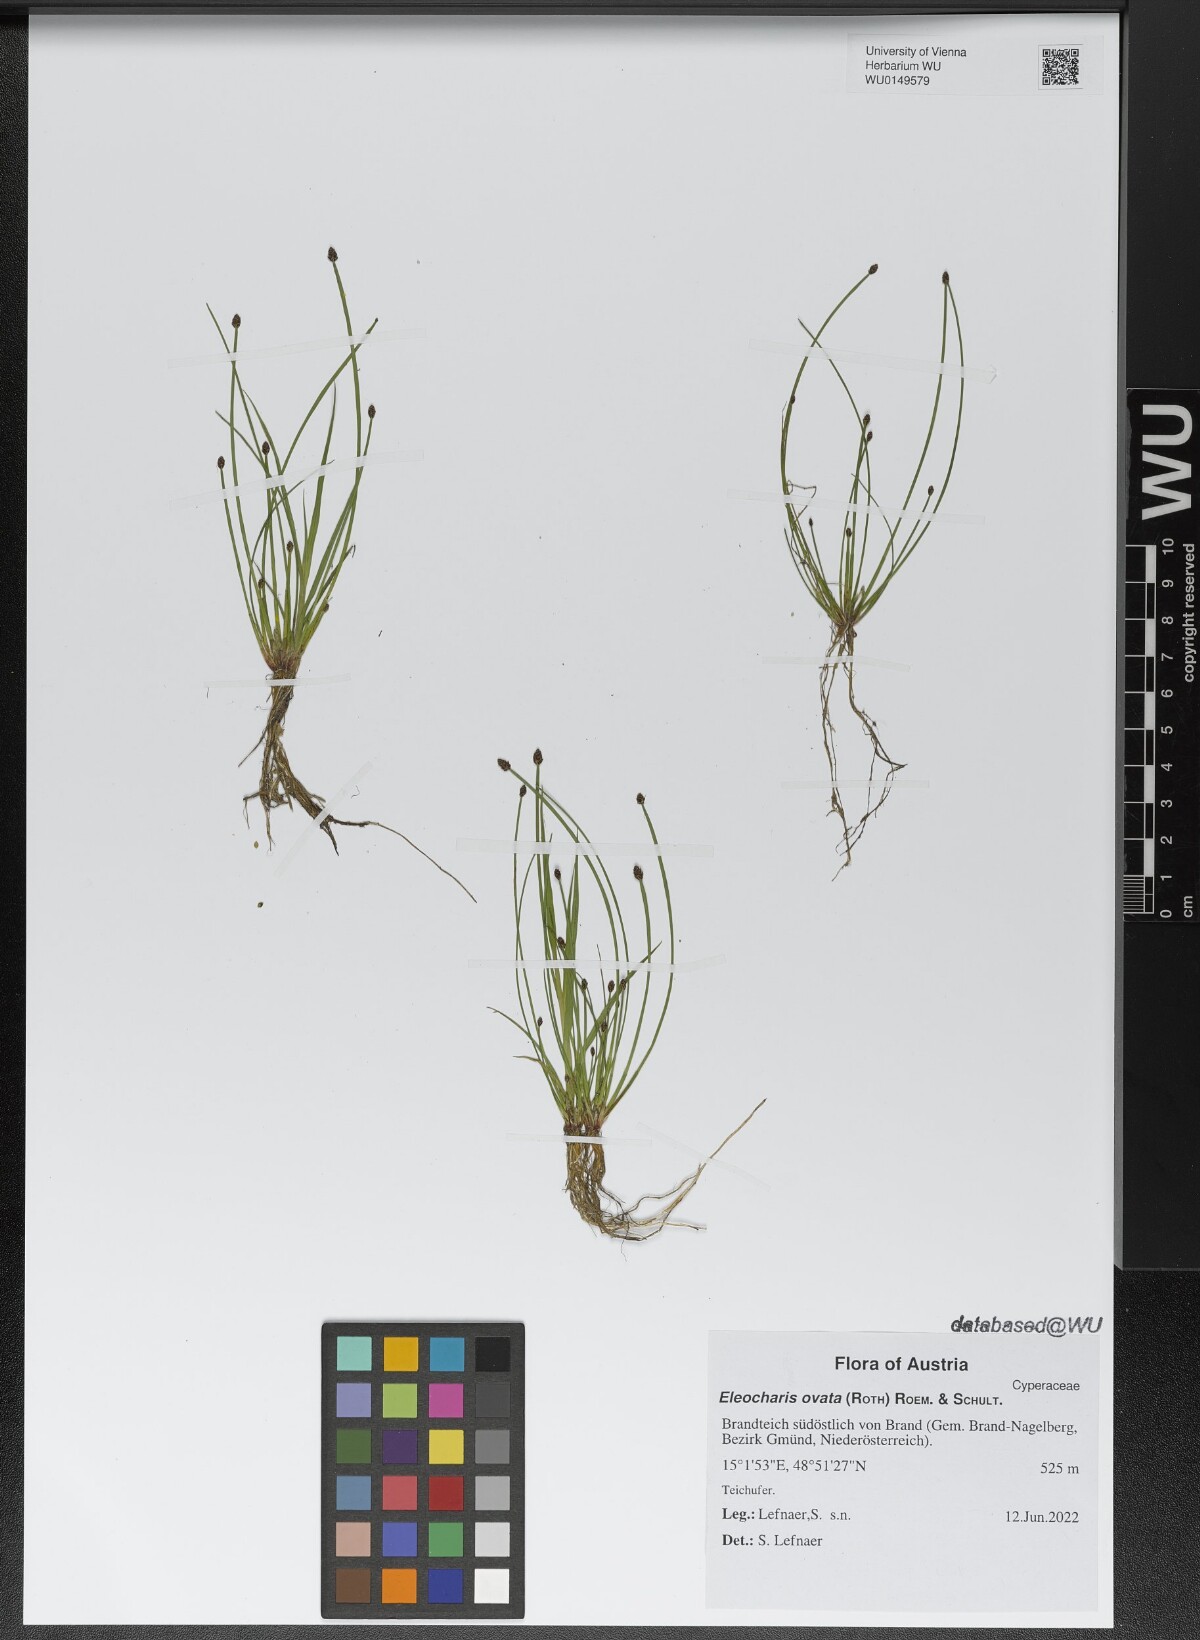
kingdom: Plantae
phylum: Tracheophyta
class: Liliopsida
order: Poales
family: Cyperaceae
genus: Eleocharis
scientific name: Eleocharis ovata
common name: Oval spike-rush
